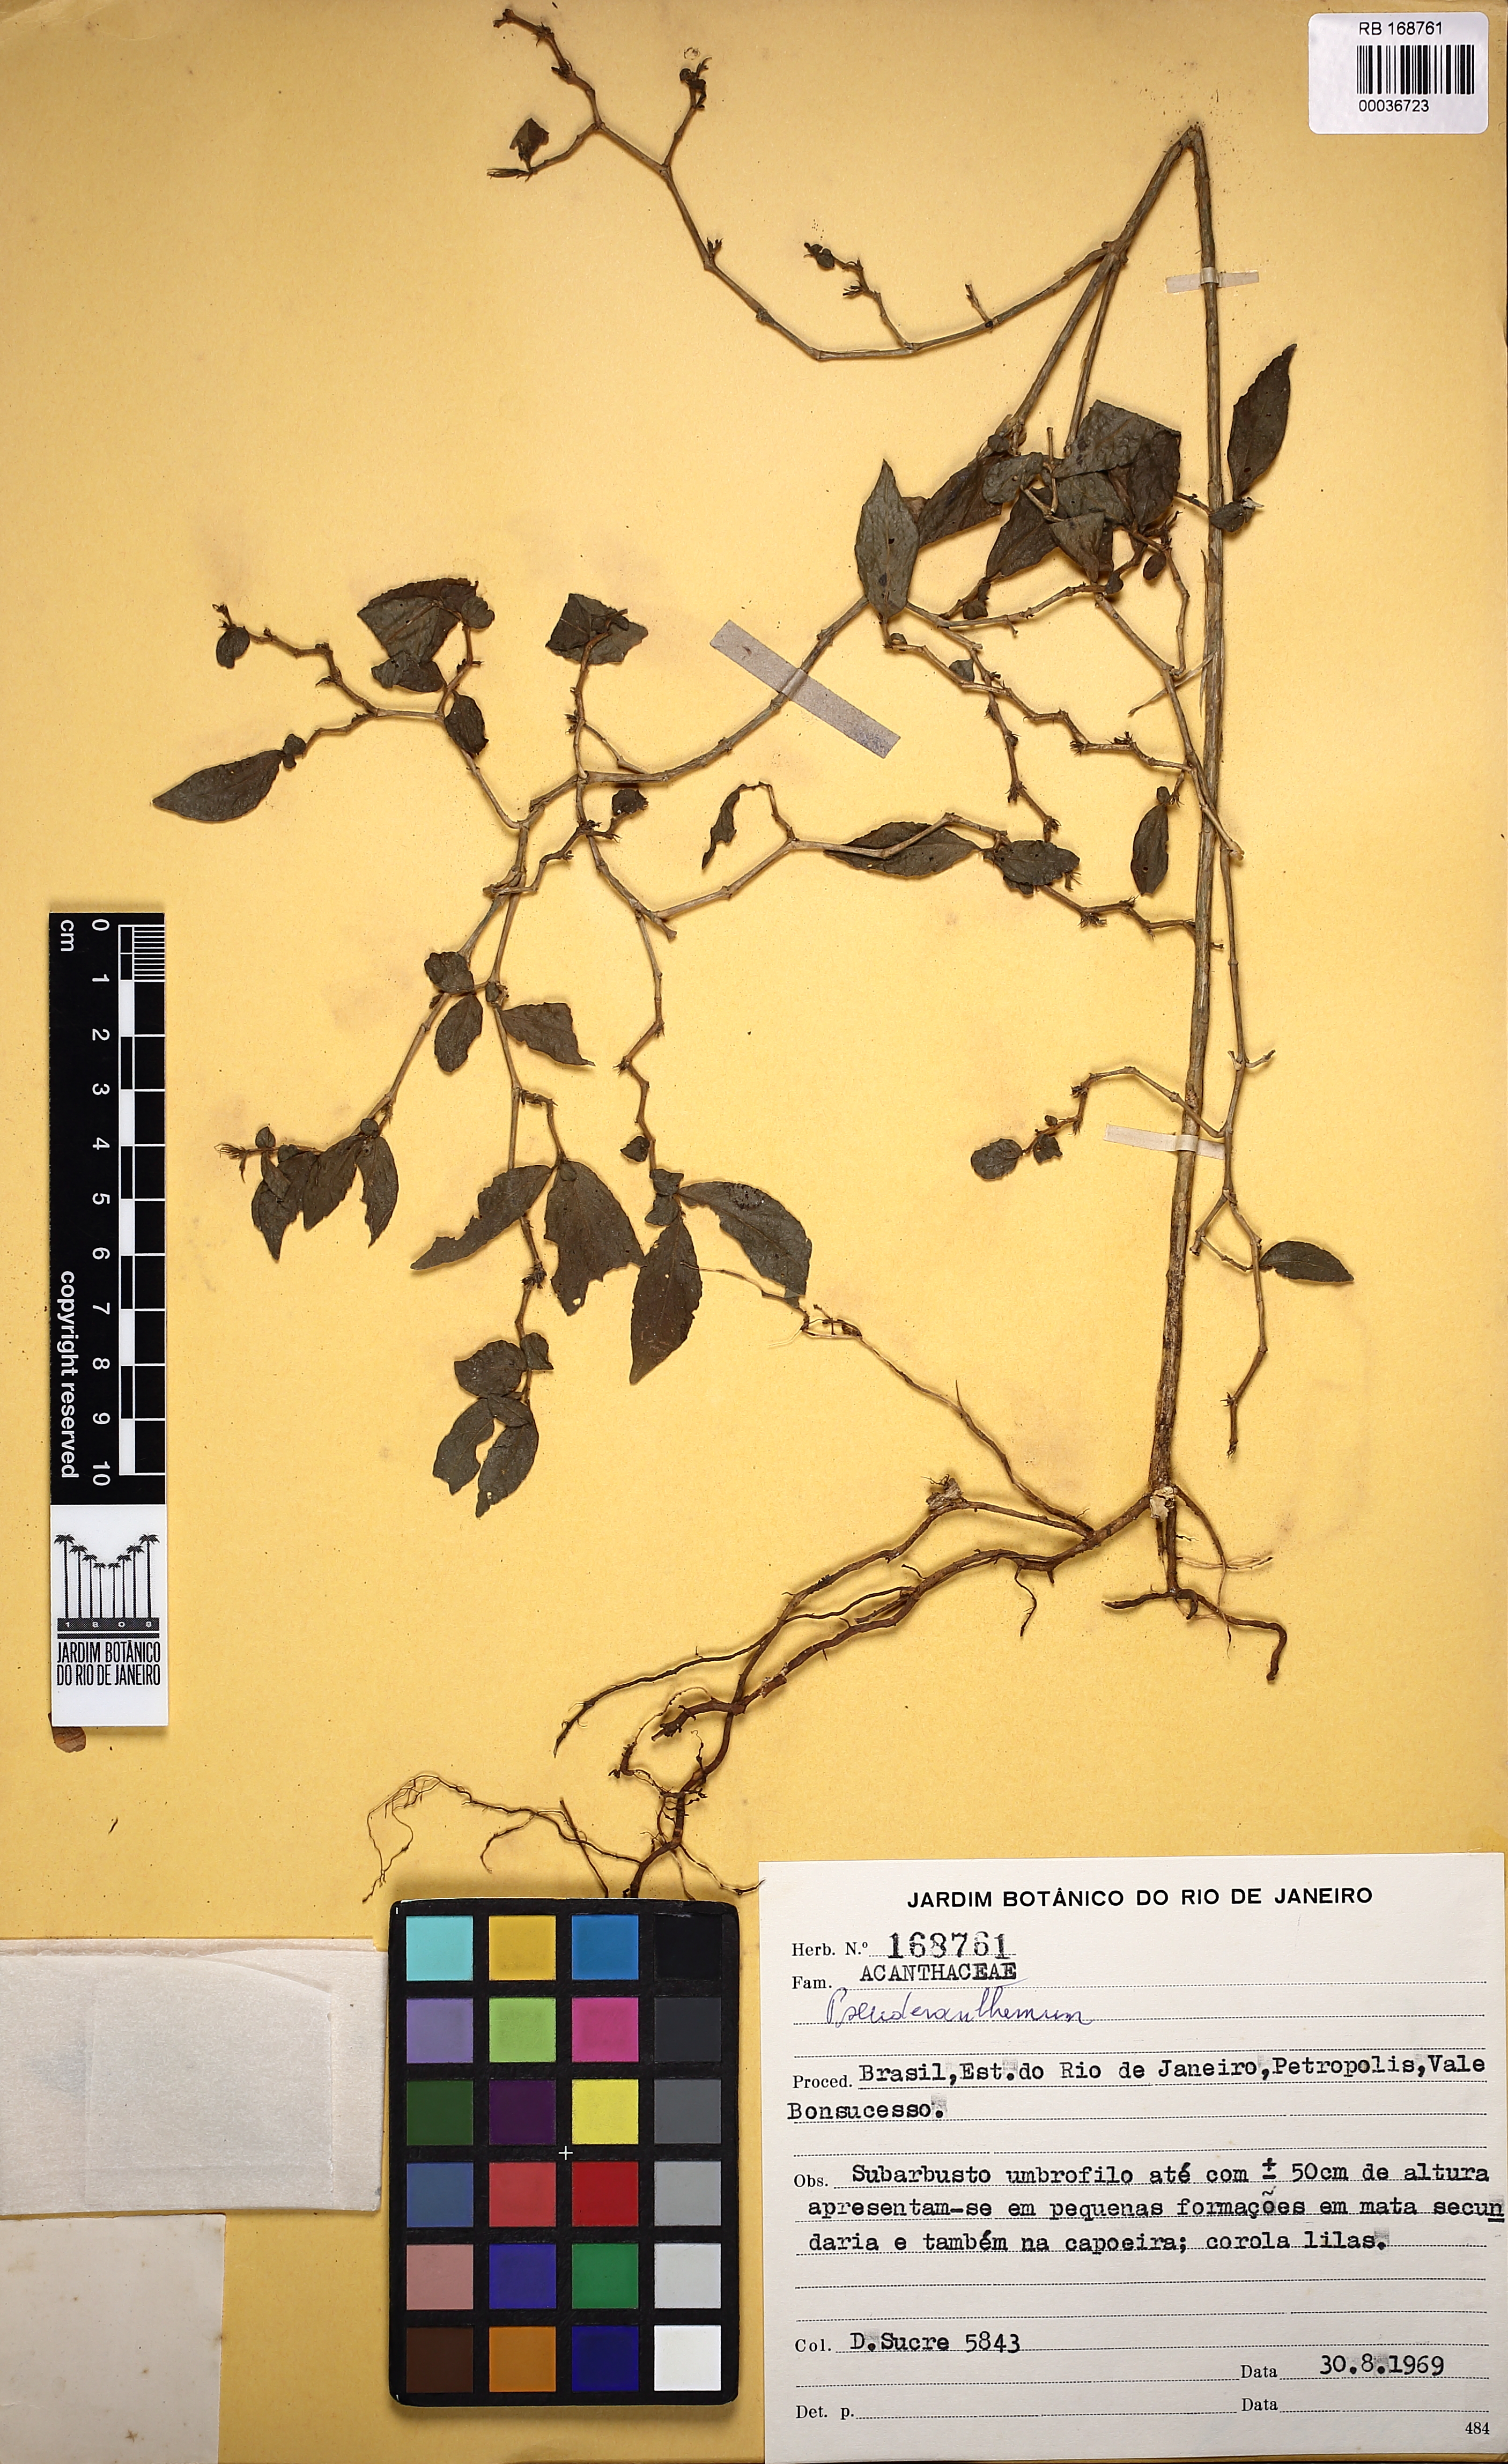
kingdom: Plantae
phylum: Tracheophyta
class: Magnoliopsida
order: Lamiales
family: Acanthaceae
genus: Pseuderanthemum
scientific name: Pseuderanthemum
